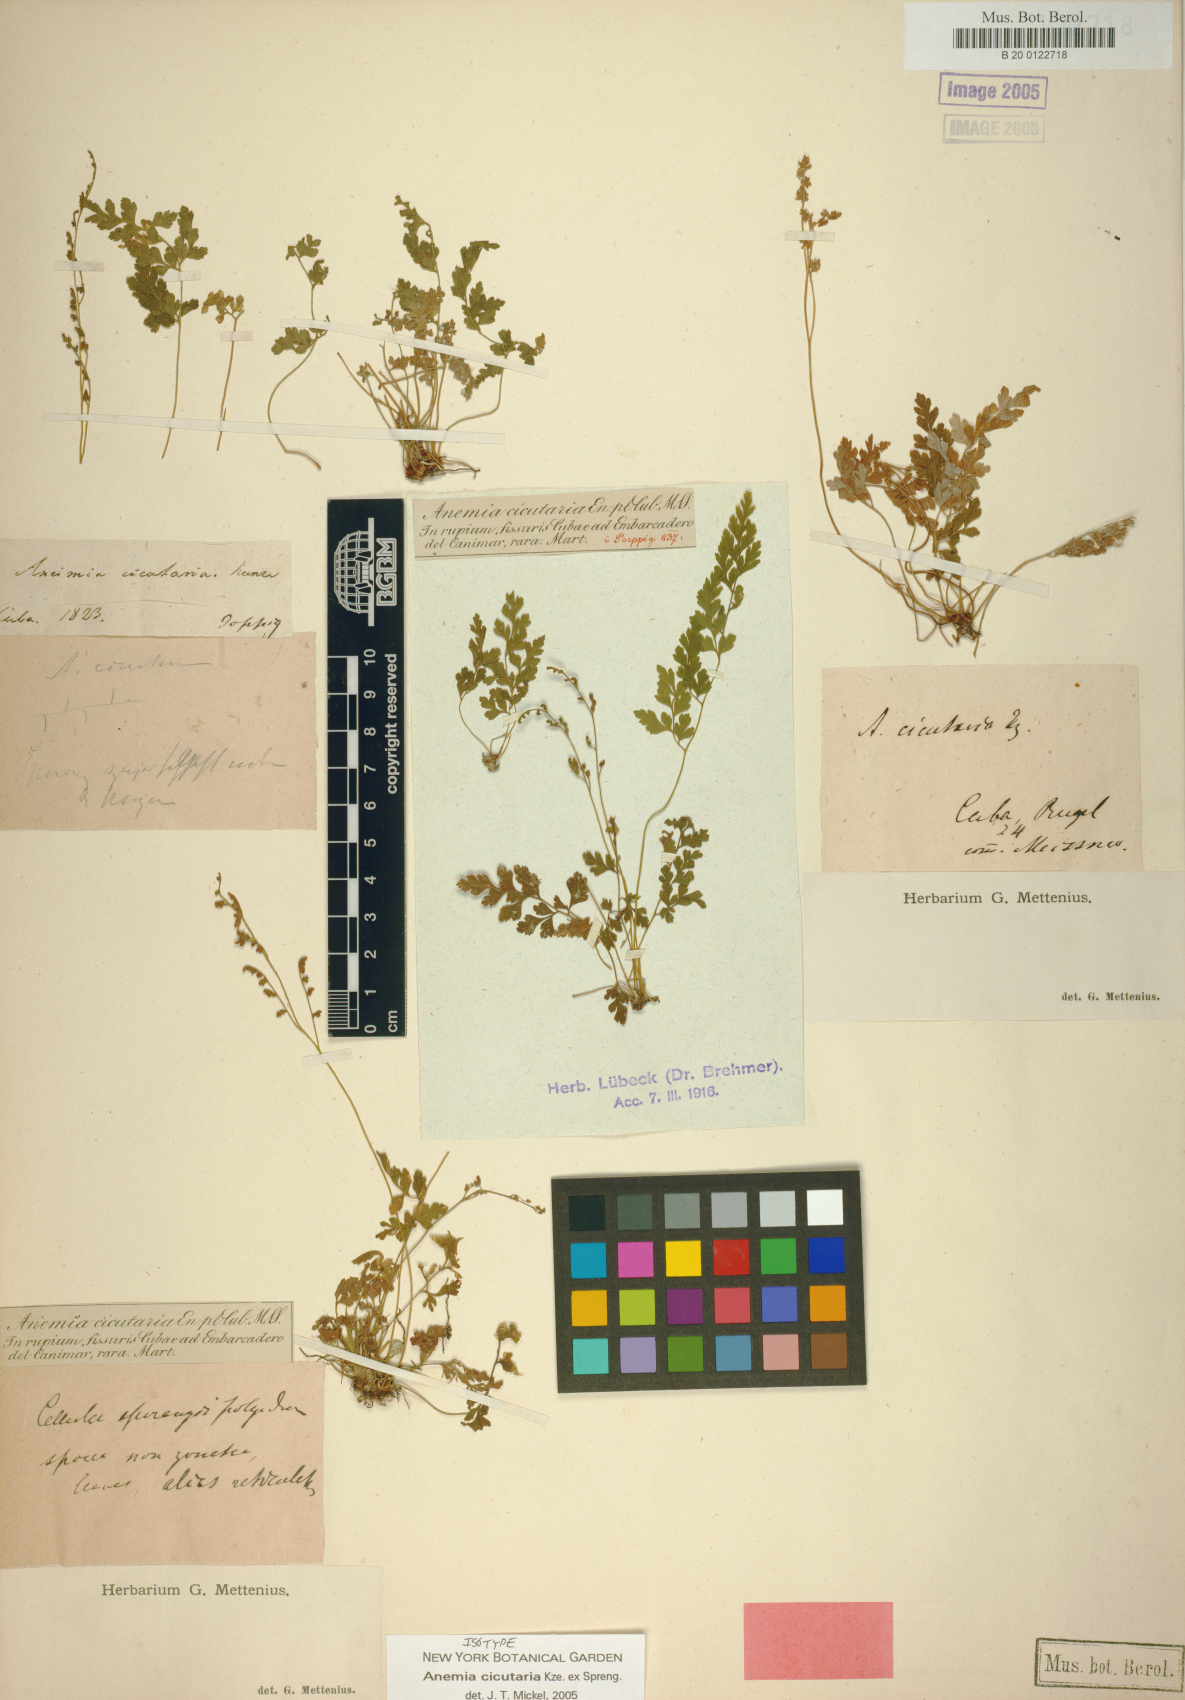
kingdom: Plantae
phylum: Tracheophyta
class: Polypodiopsida
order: Schizaeales
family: Anemiaceae
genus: Anemia
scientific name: Anemia cicutaria
